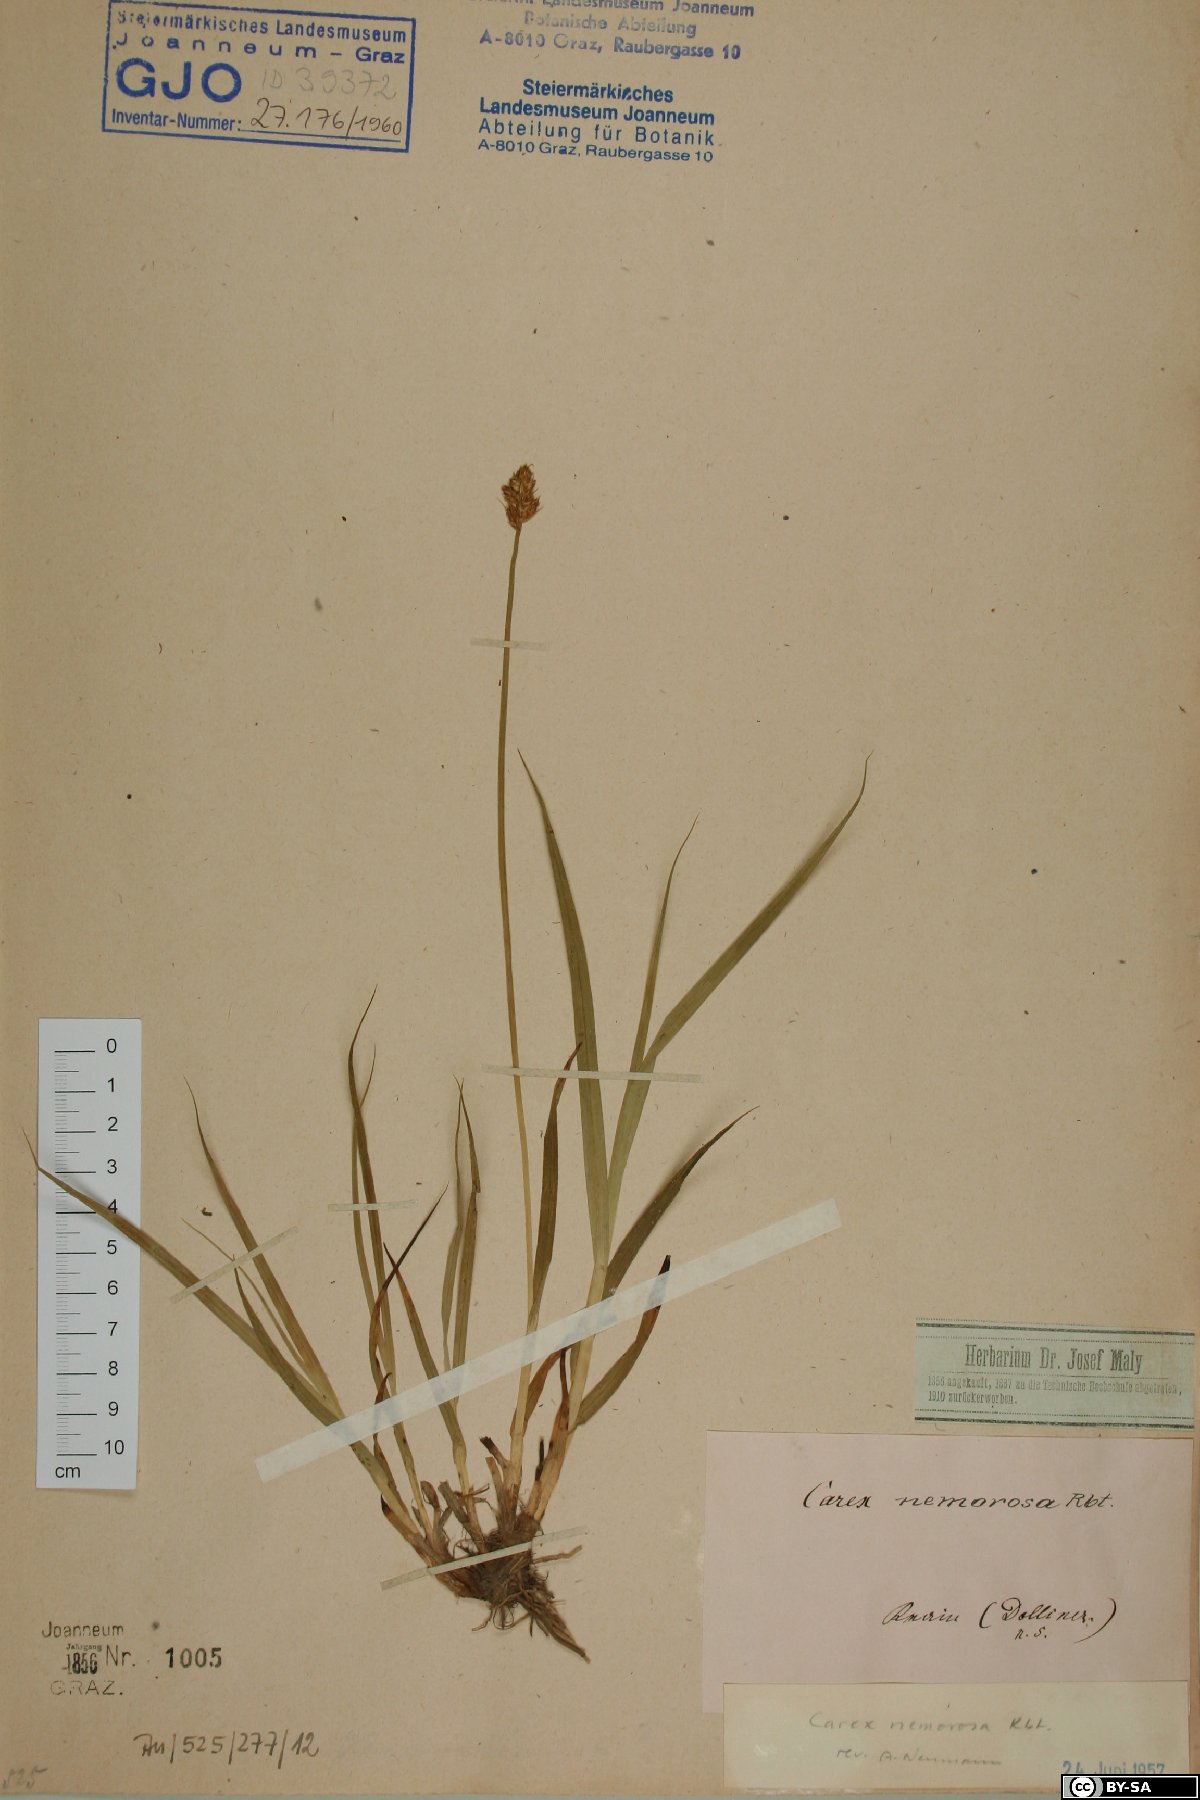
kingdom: Plantae
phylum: Tracheophyta
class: Liliopsida
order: Poales
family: Cyperaceae
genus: Carex
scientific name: Carex otrubae
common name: False fox-sedge
